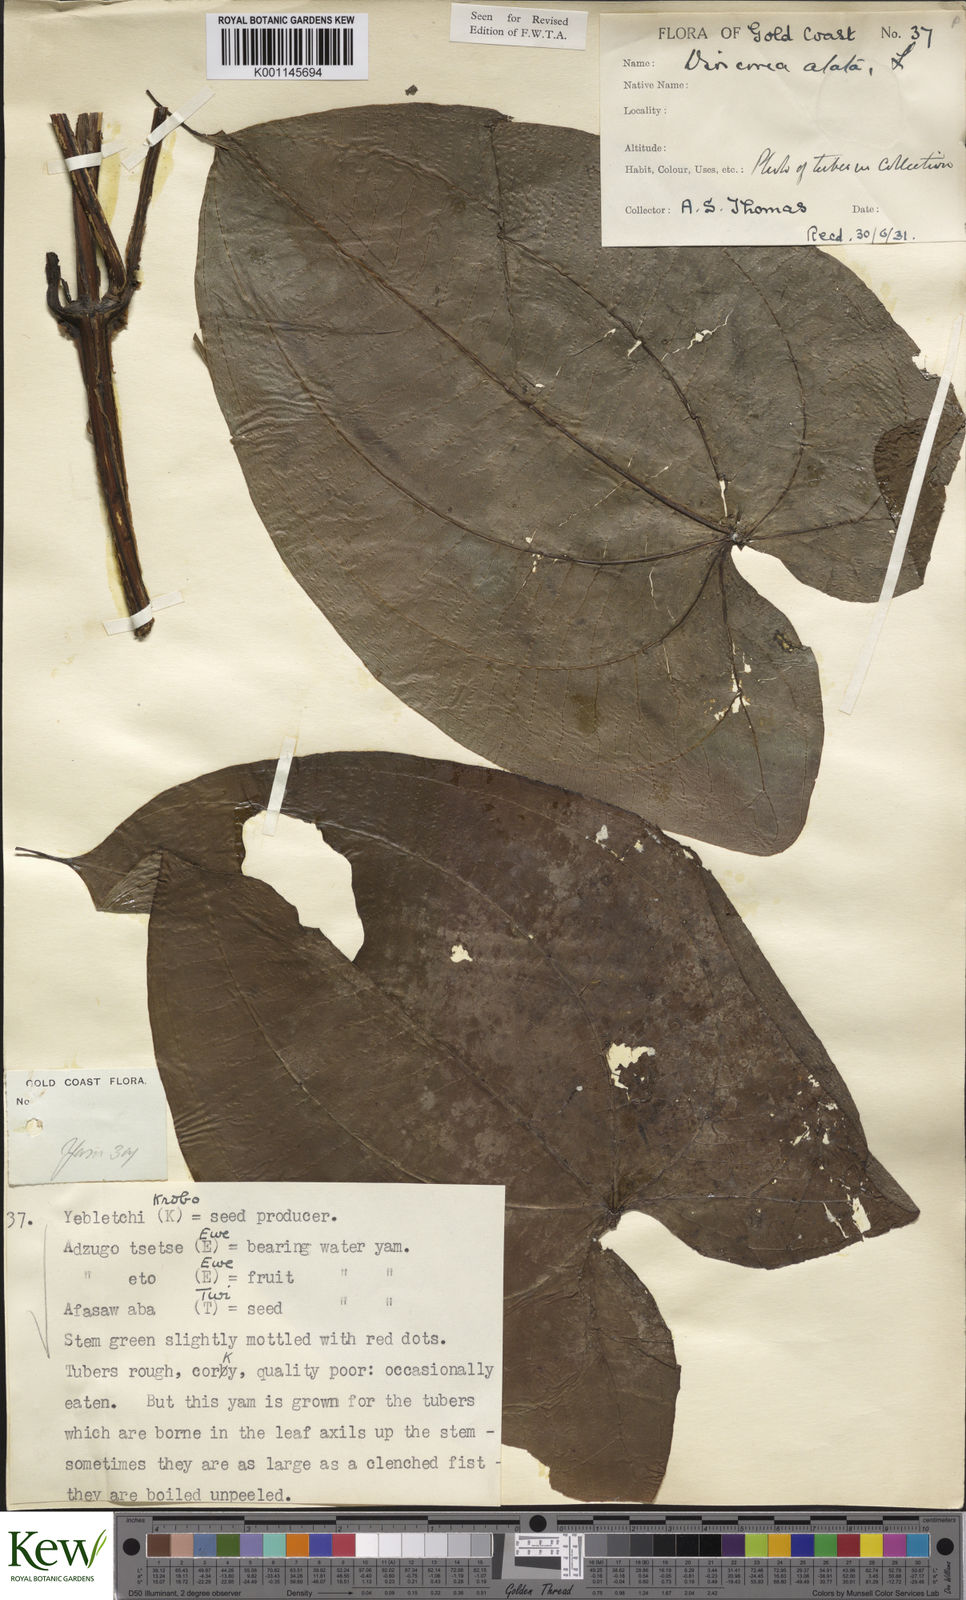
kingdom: Plantae
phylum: Tracheophyta
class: Liliopsida
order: Dioscoreales
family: Dioscoreaceae
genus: Dioscorea
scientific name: Dioscorea alata
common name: Water yam
